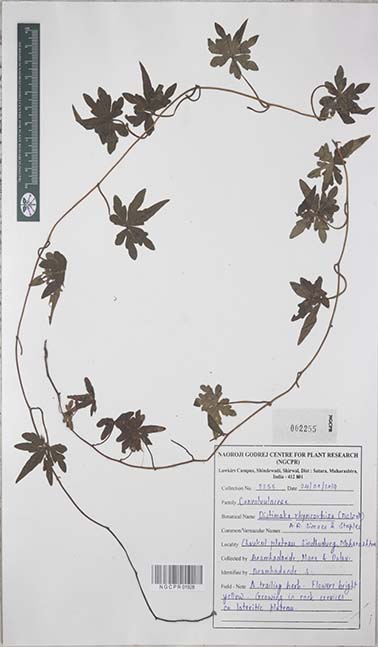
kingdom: Plantae
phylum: Tracheophyta
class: Magnoliopsida
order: Solanales
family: Convolvulaceae
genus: Distimake
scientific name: Distimake rhynchorrhizus
